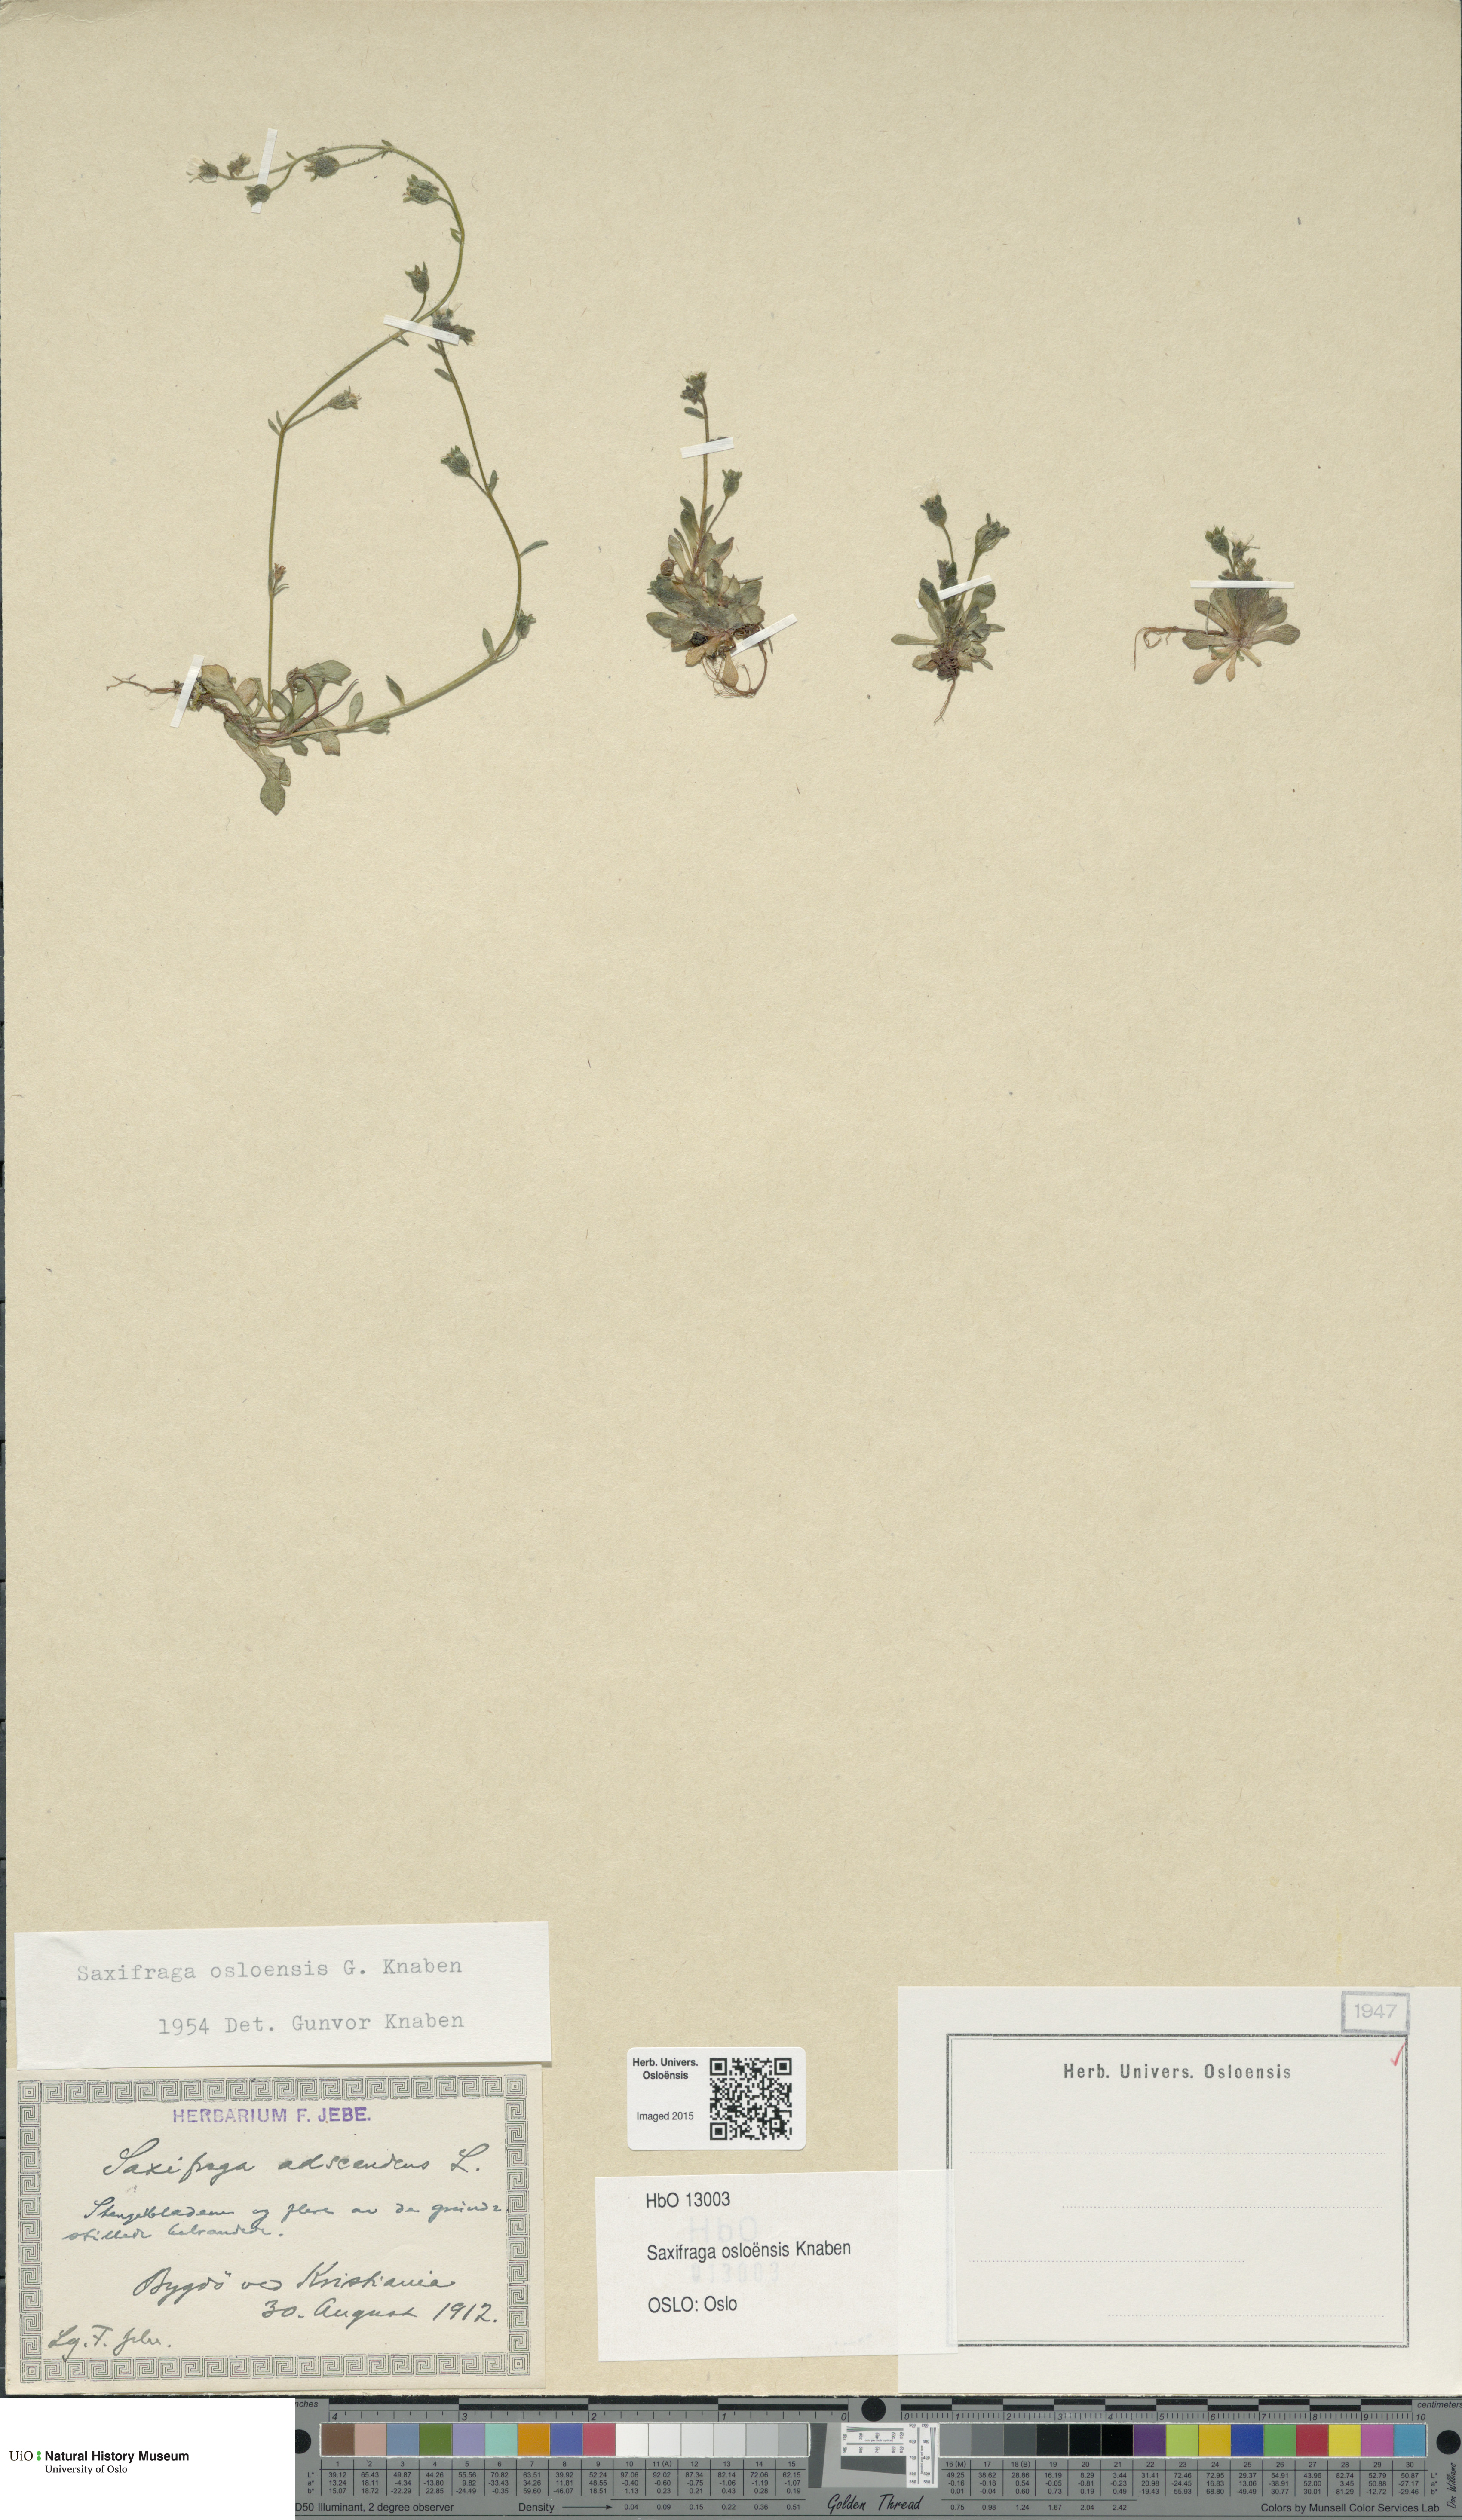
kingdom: Plantae
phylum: Tracheophyta
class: Magnoliopsida
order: Saxifragales
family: Saxifragaceae
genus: Saxifraga
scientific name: Saxifraga osloensis
